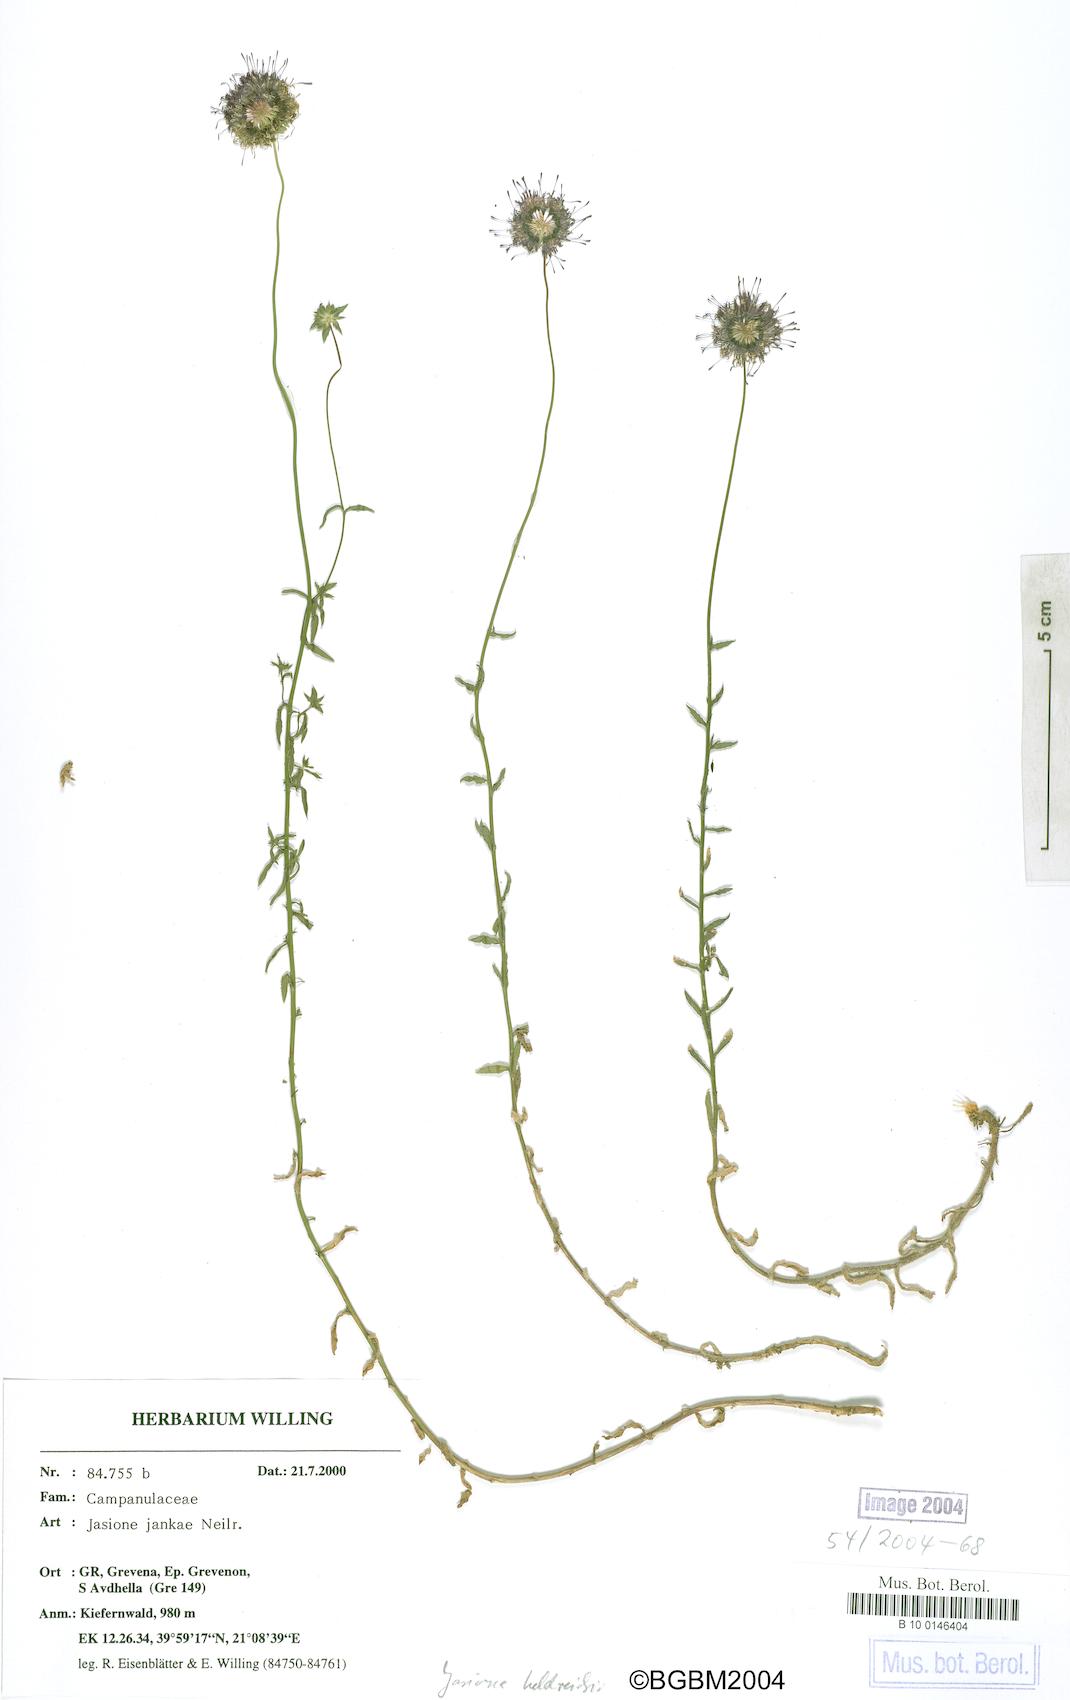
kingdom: Plantae
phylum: Tracheophyta
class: Magnoliopsida
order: Asterales
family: Campanulaceae
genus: Jasione
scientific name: Jasione heldreichii
